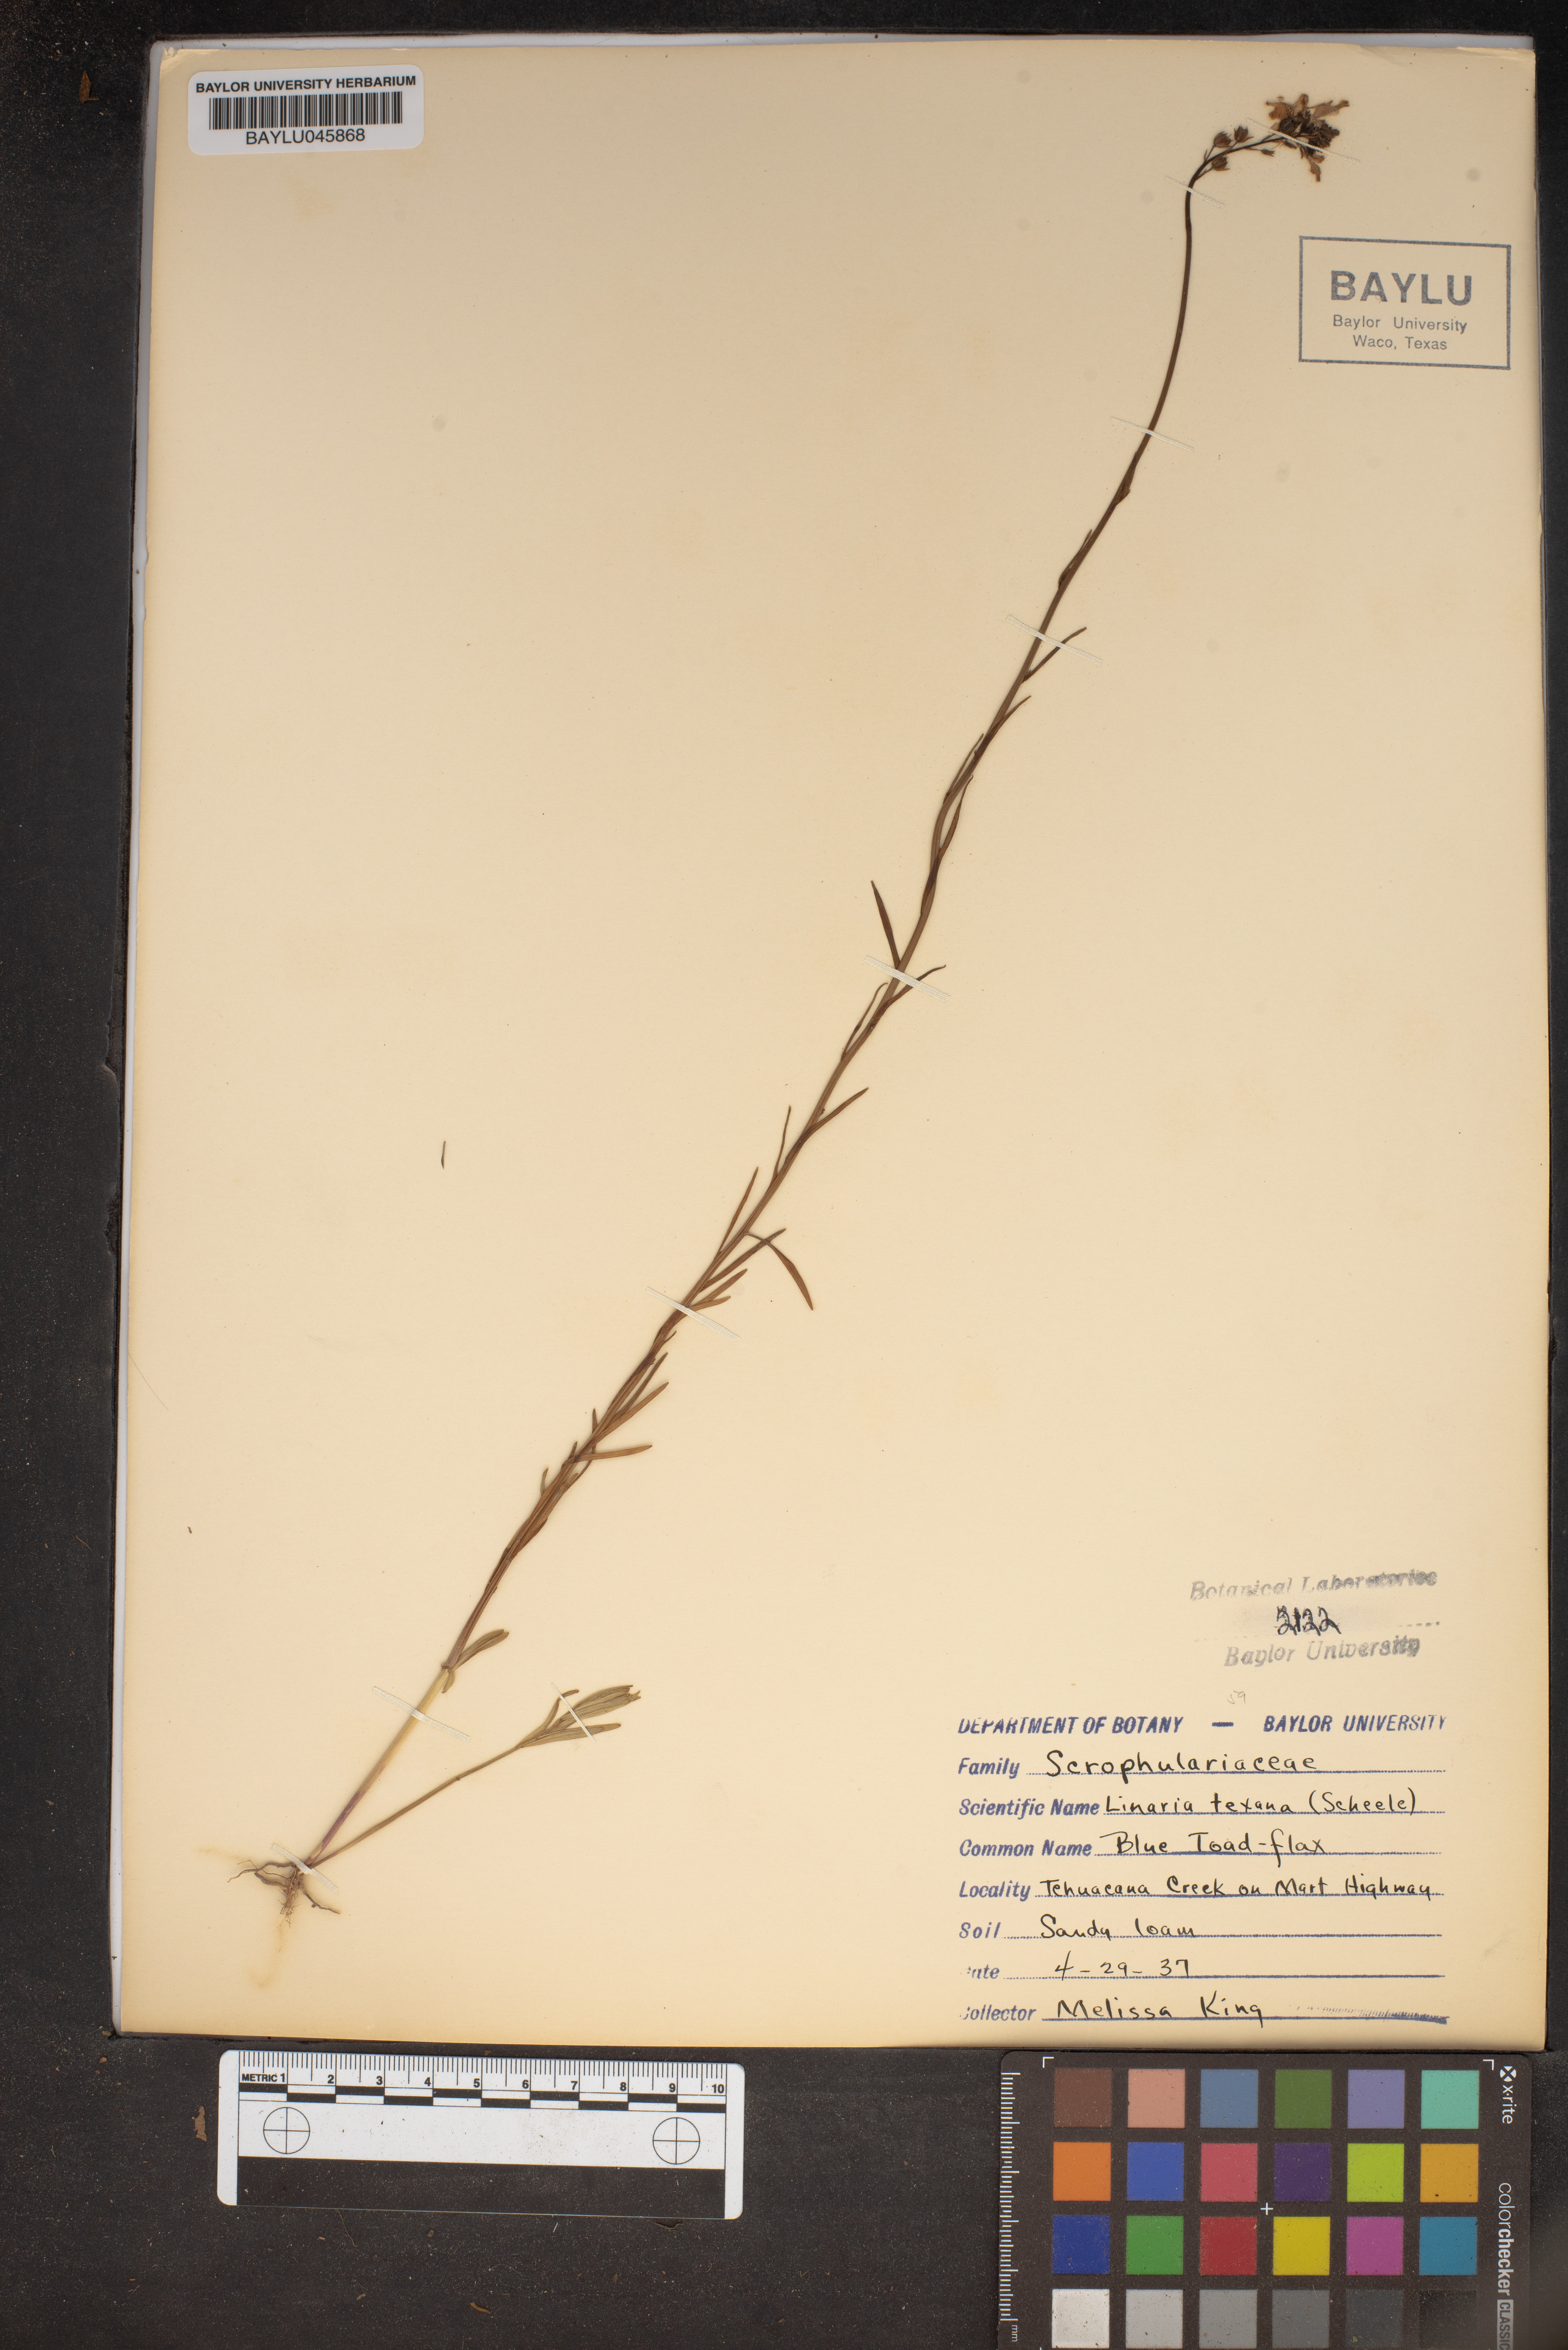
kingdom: Plantae
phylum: Tracheophyta
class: Magnoliopsida
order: Lamiales
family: Plantaginaceae
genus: Nuttallanthus
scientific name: Nuttallanthus texanus
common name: Texas toadflax
